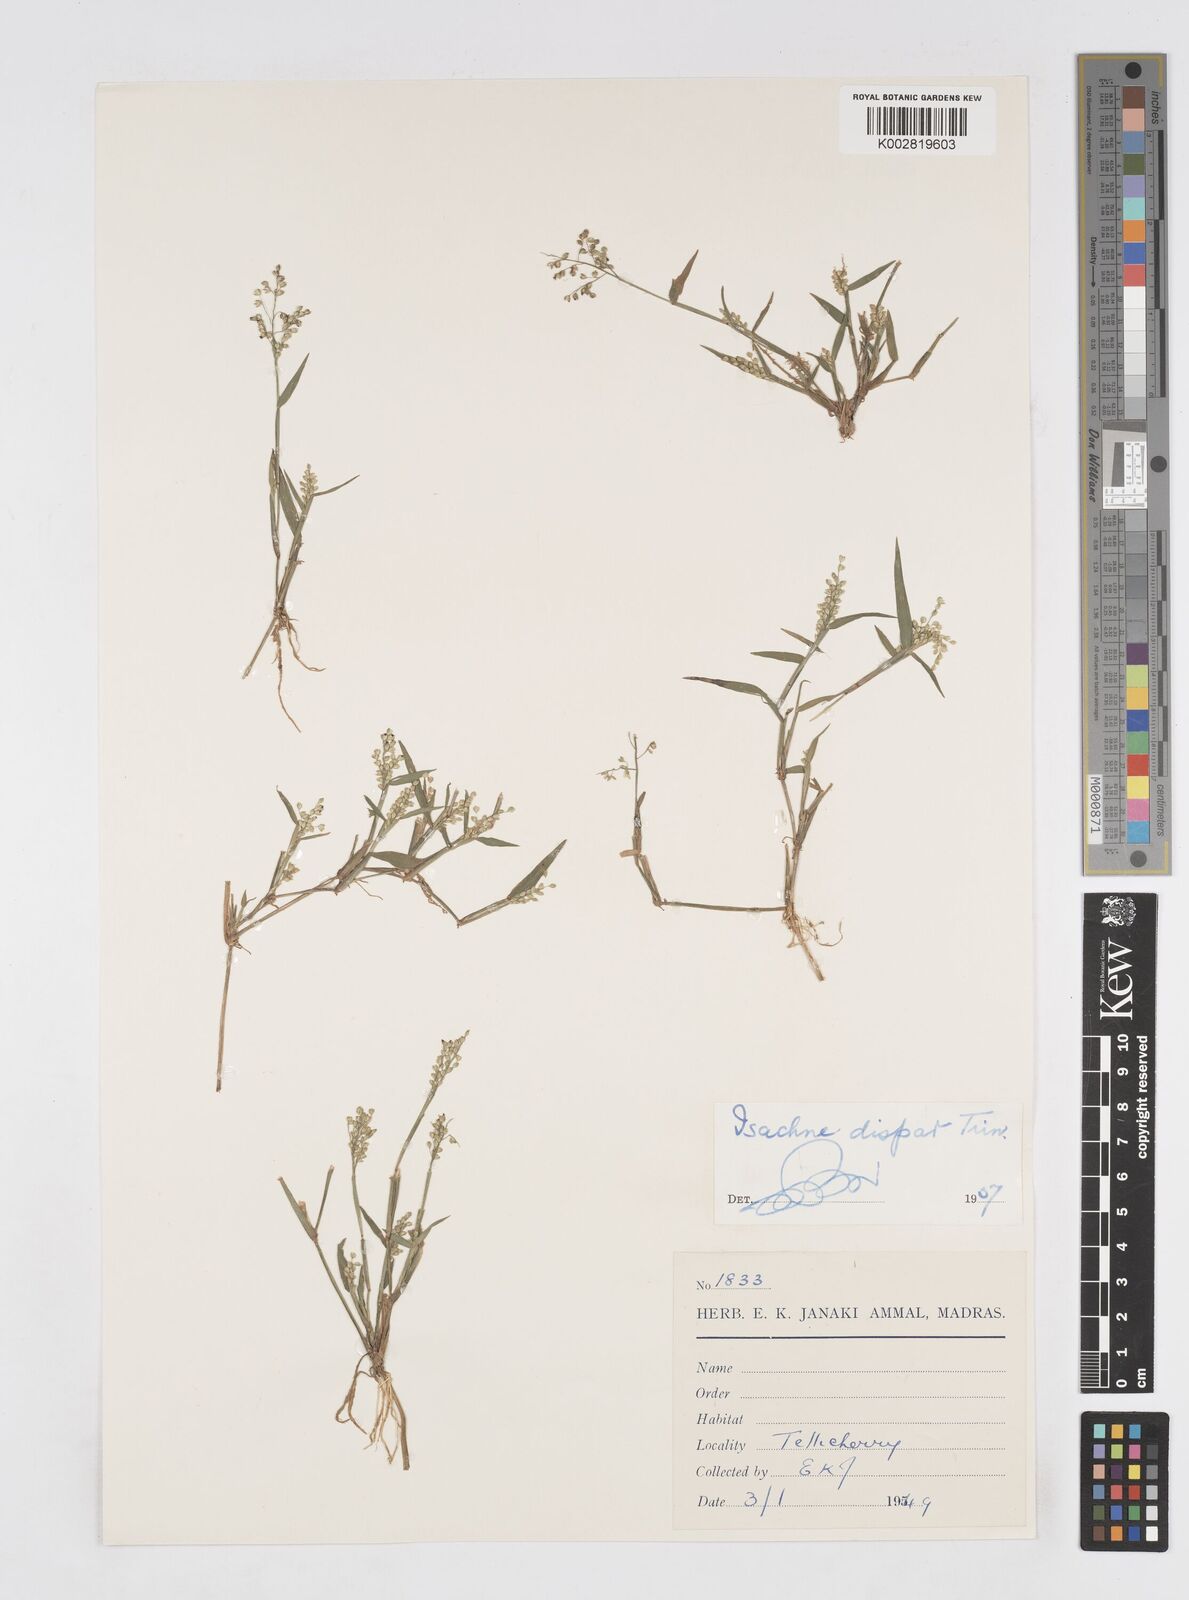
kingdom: Plantae
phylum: Tracheophyta
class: Liliopsida
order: Poales
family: Poaceae
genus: Isachne
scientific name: Isachne globosa
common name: Swamp millet
